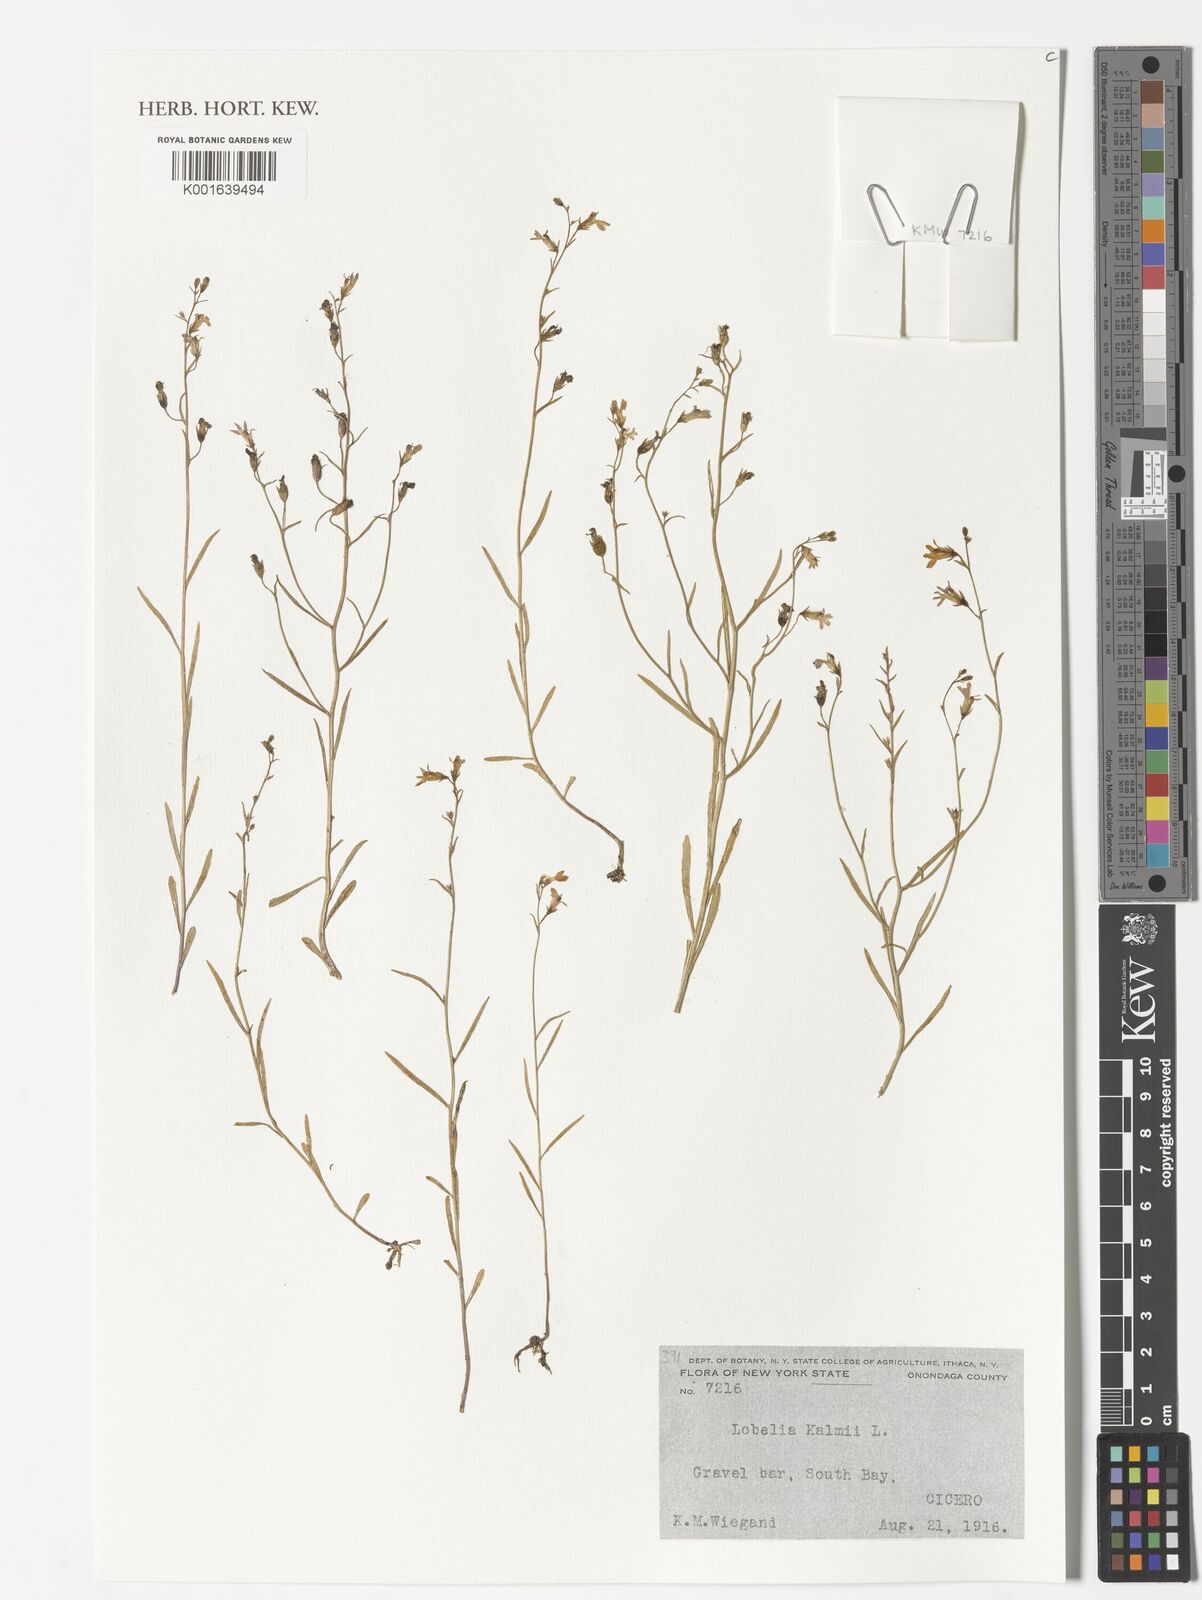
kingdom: Plantae
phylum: Tracheophyta
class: Magnoliopsida
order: Asterales
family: Campanulaceae
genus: Lobelia
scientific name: Lobelia kalmii
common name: Kalm's lobelia
